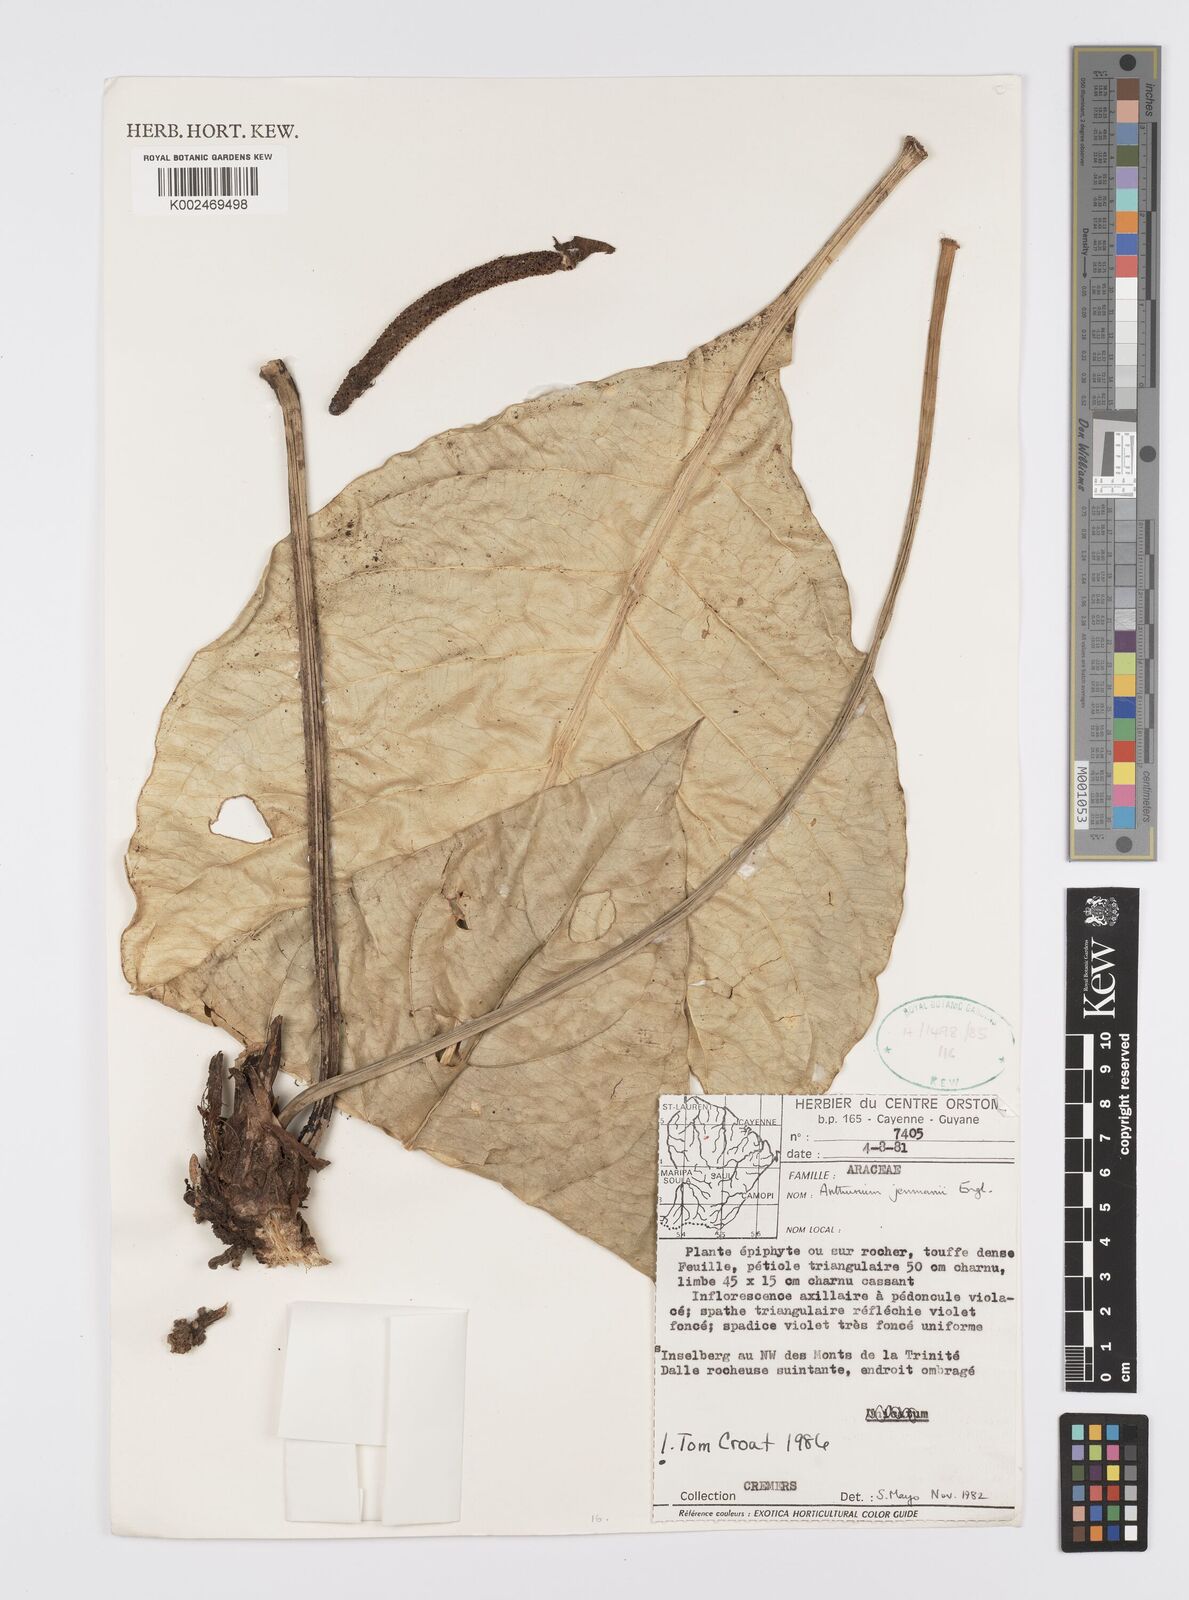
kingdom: Plantae
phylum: Tracheophyta
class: Liliopsida
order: Alismatales
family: Araceae
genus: Anthurium
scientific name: Anthurium jenmanii
